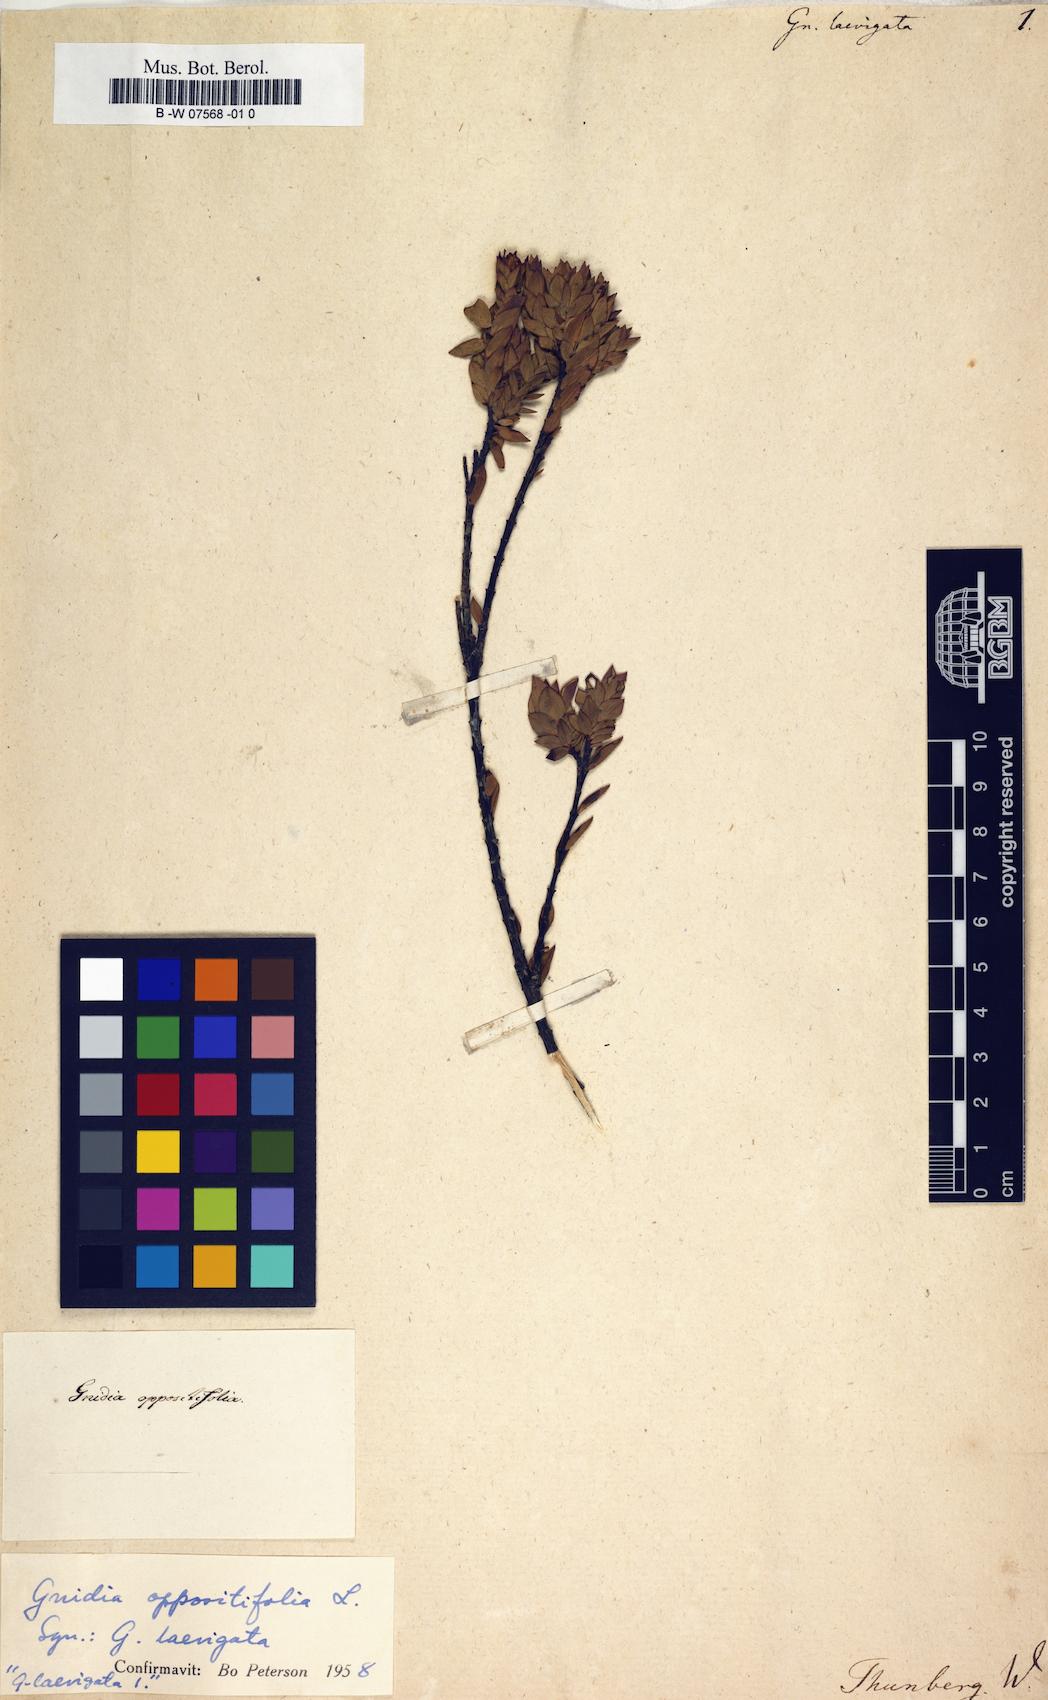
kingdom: Plantae
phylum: Tracheophyta
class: Magnoliopsida
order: Malvales
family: Thymelaeaceae
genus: Gnidia
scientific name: Gnidia oppositifolia
